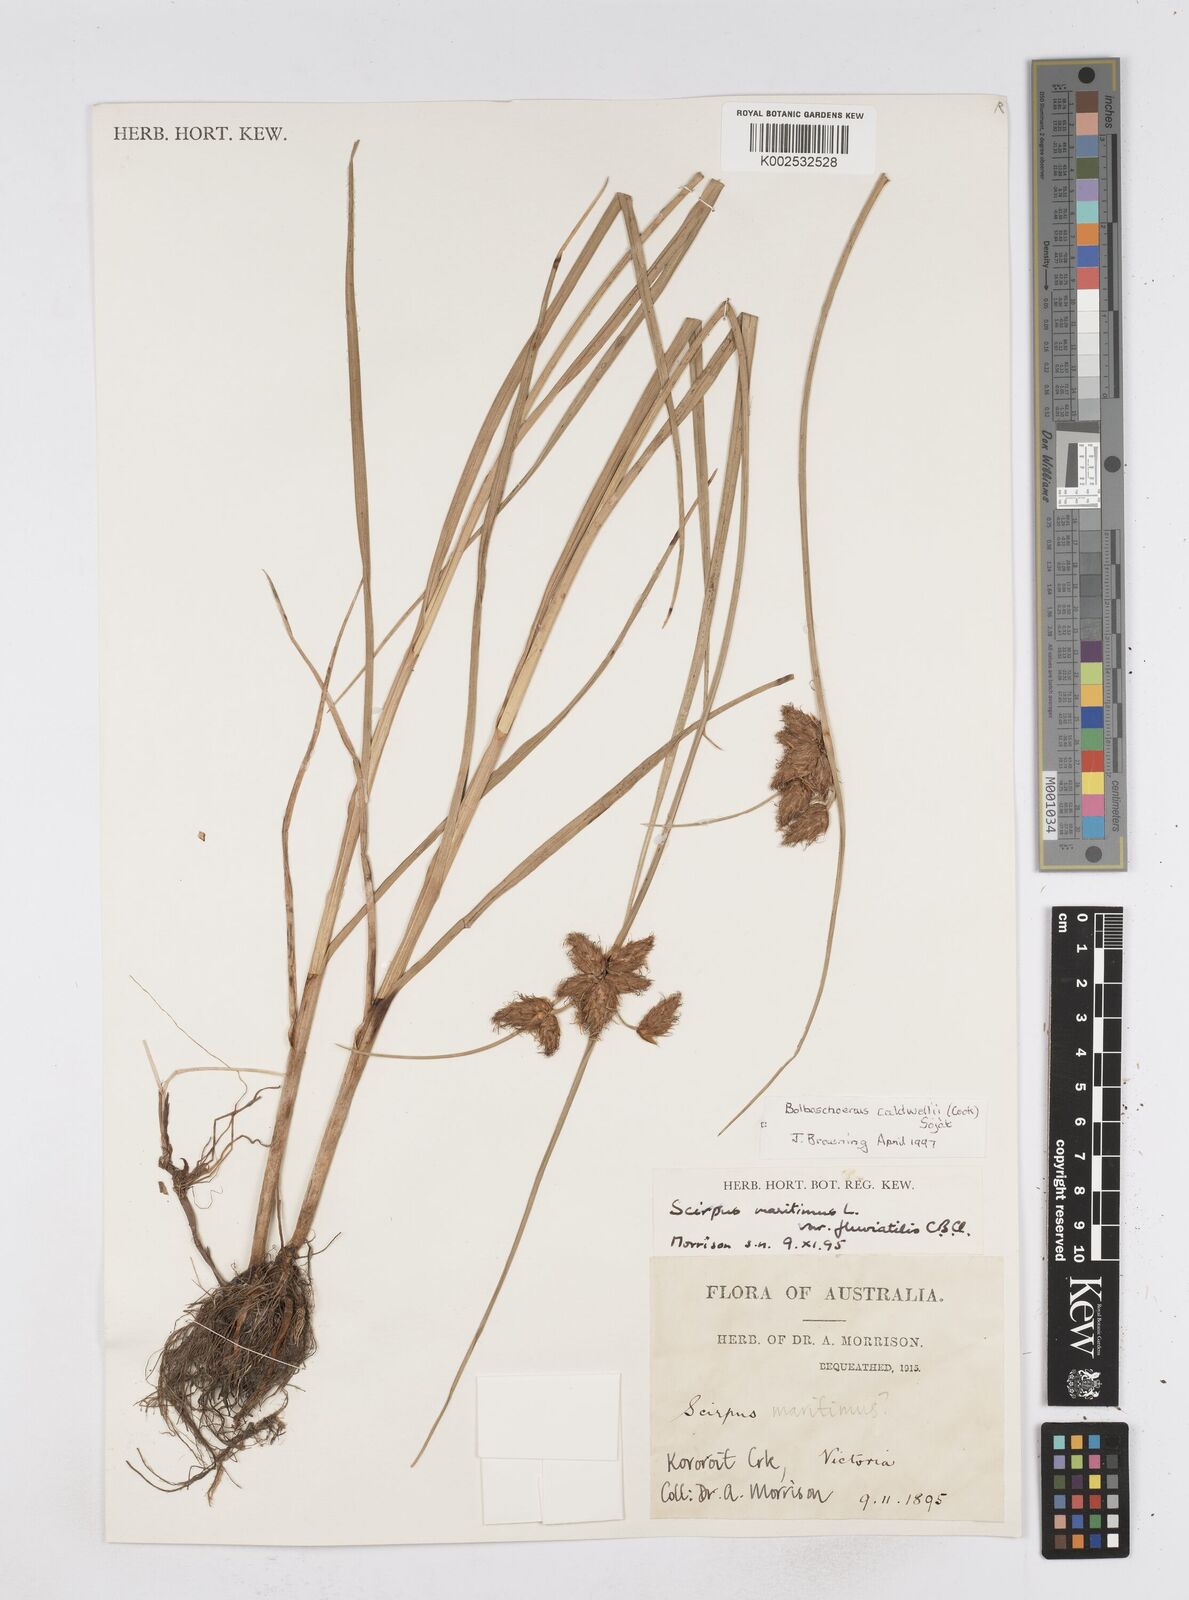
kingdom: Plantae
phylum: Tracheophyta
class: Liliopsida
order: Poales
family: Cyperaceae
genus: Bolboschoenus
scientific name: Bolboschoenus maritimus
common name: Sea club-rush
